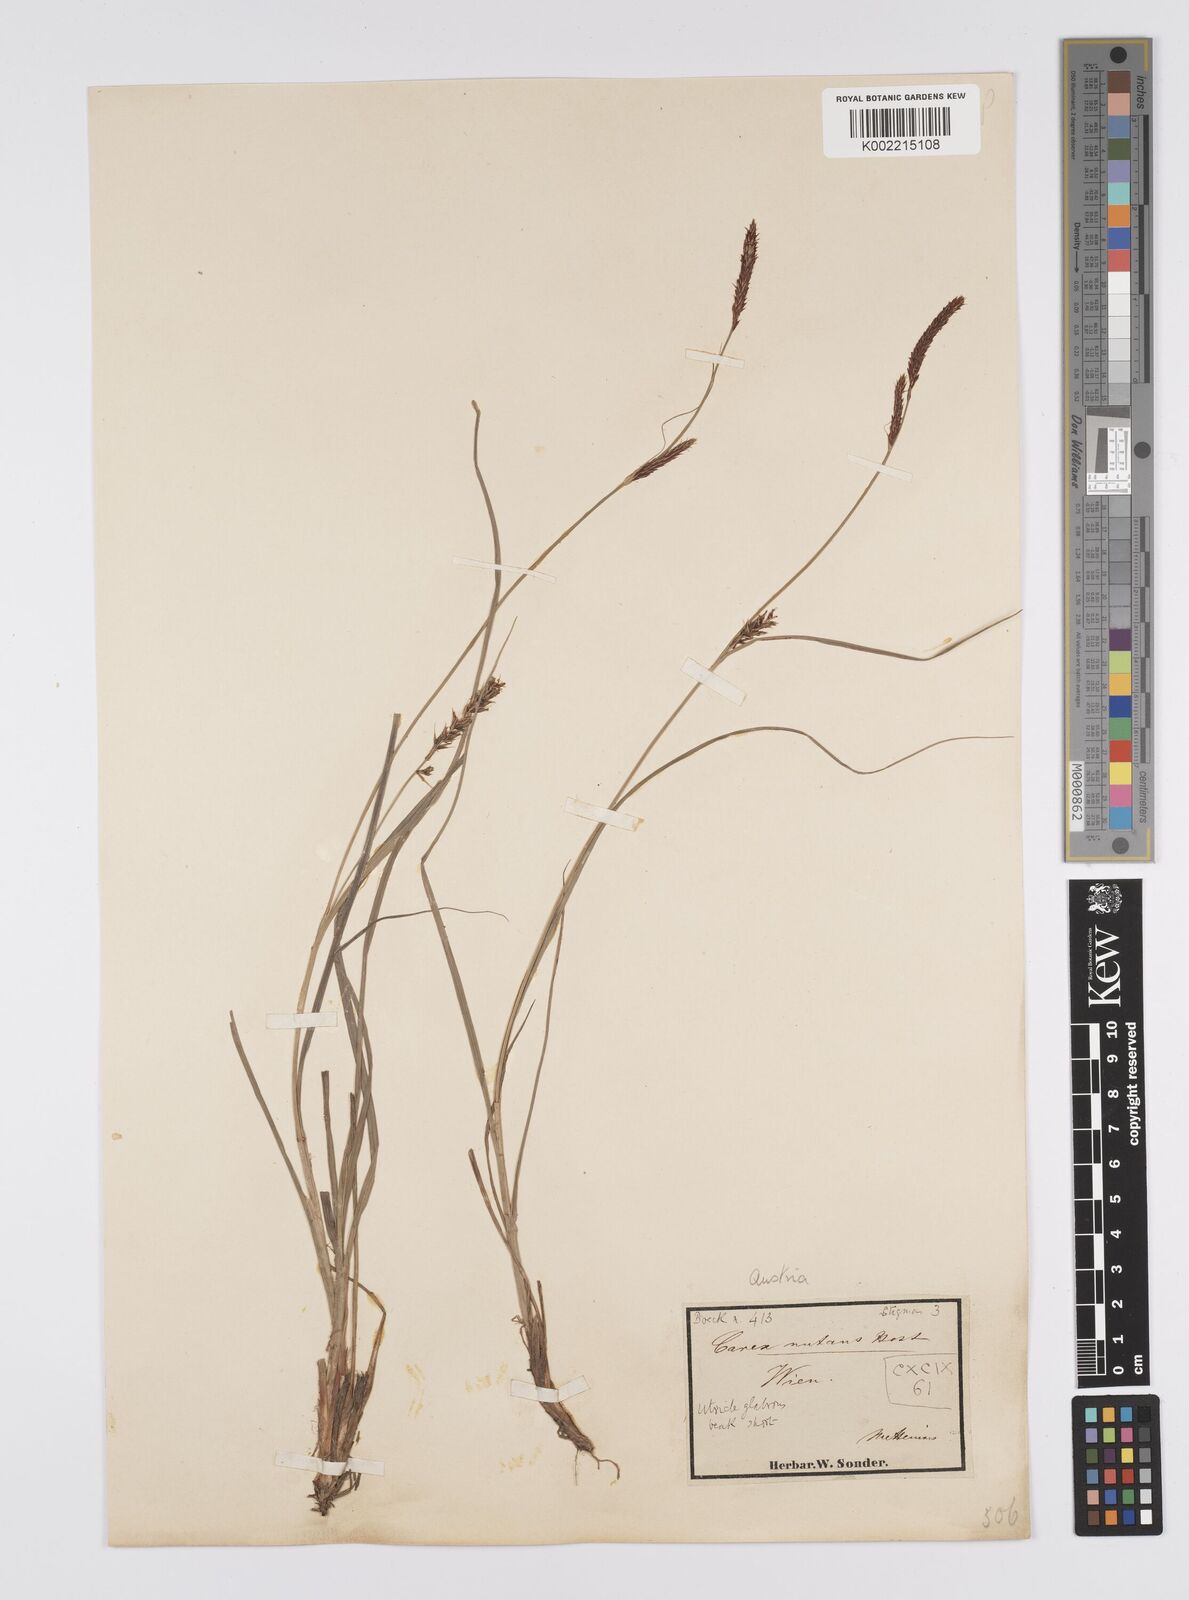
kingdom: Plantae
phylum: Tracheophyta
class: Liliopsida
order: Poales
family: Cyperaceae
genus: Carex
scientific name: Carex melanostachya
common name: Black-spiked sedge
